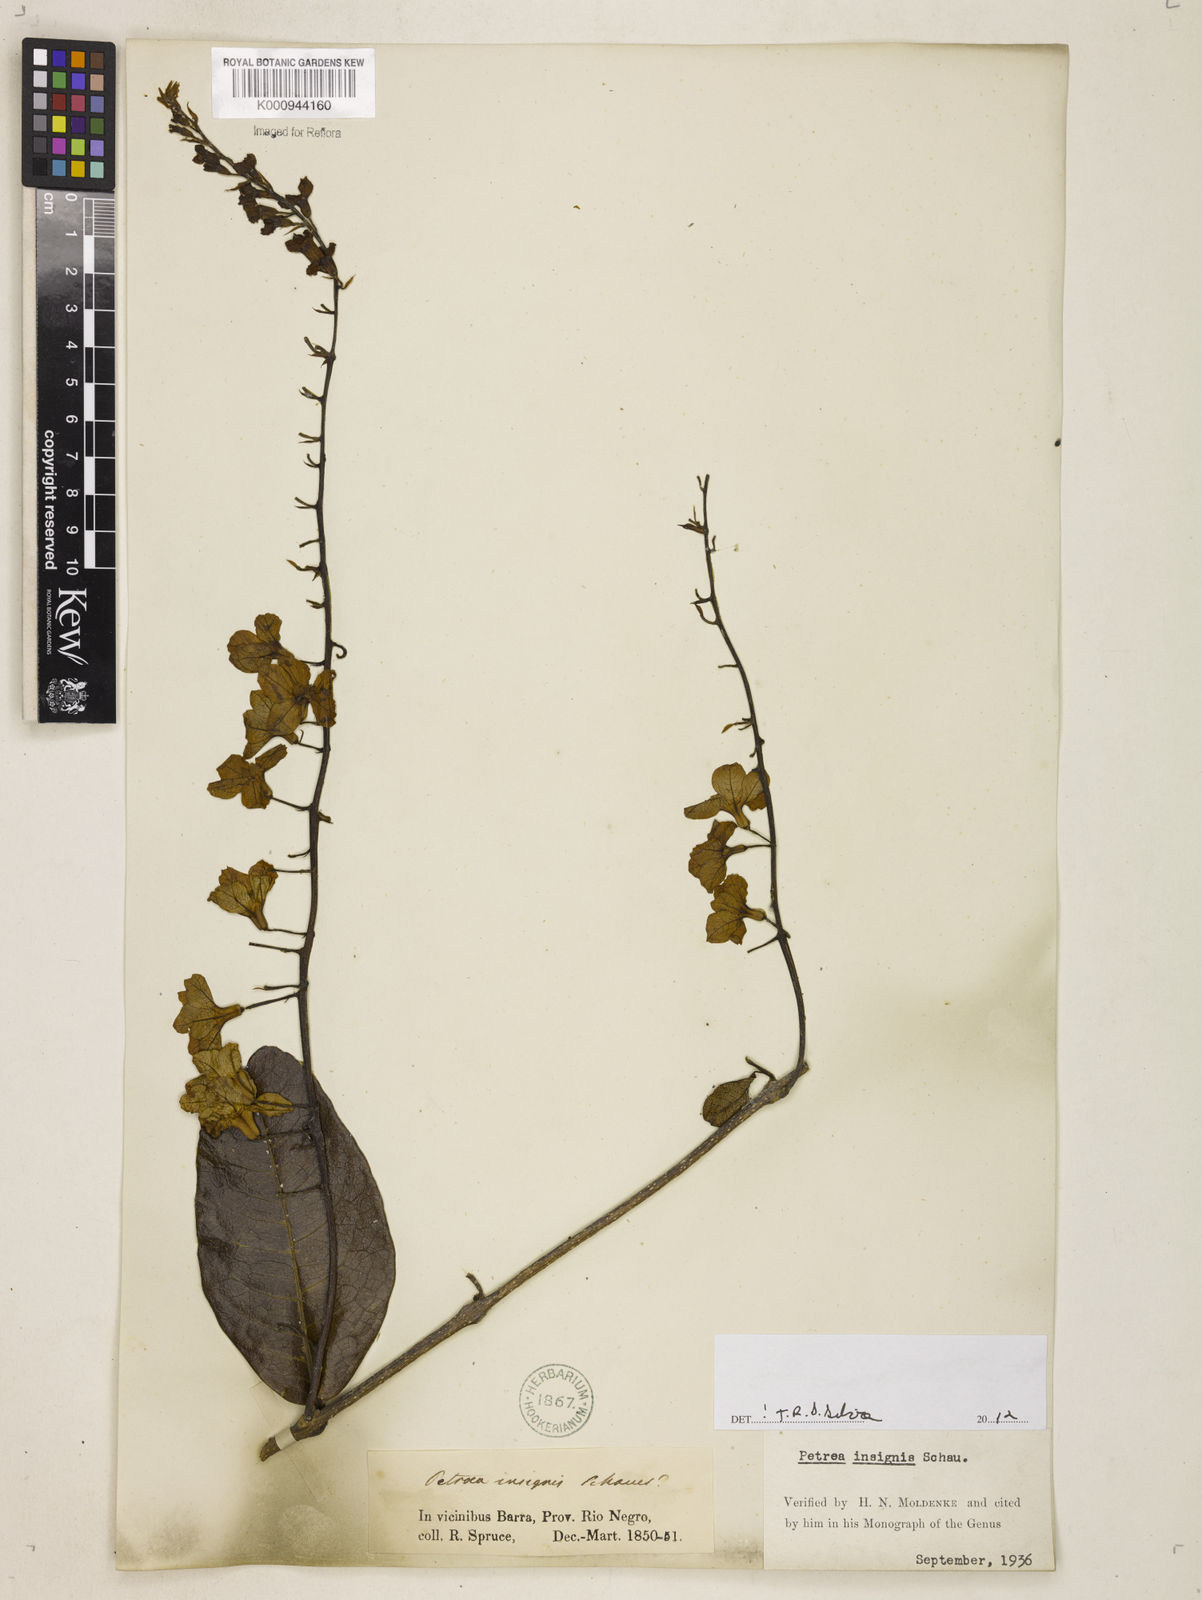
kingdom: Plantae
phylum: Tracheophyta
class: Magnoliopsida
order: Lamiales
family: Verbenaceae
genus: Petrea
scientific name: Petrea insignis
